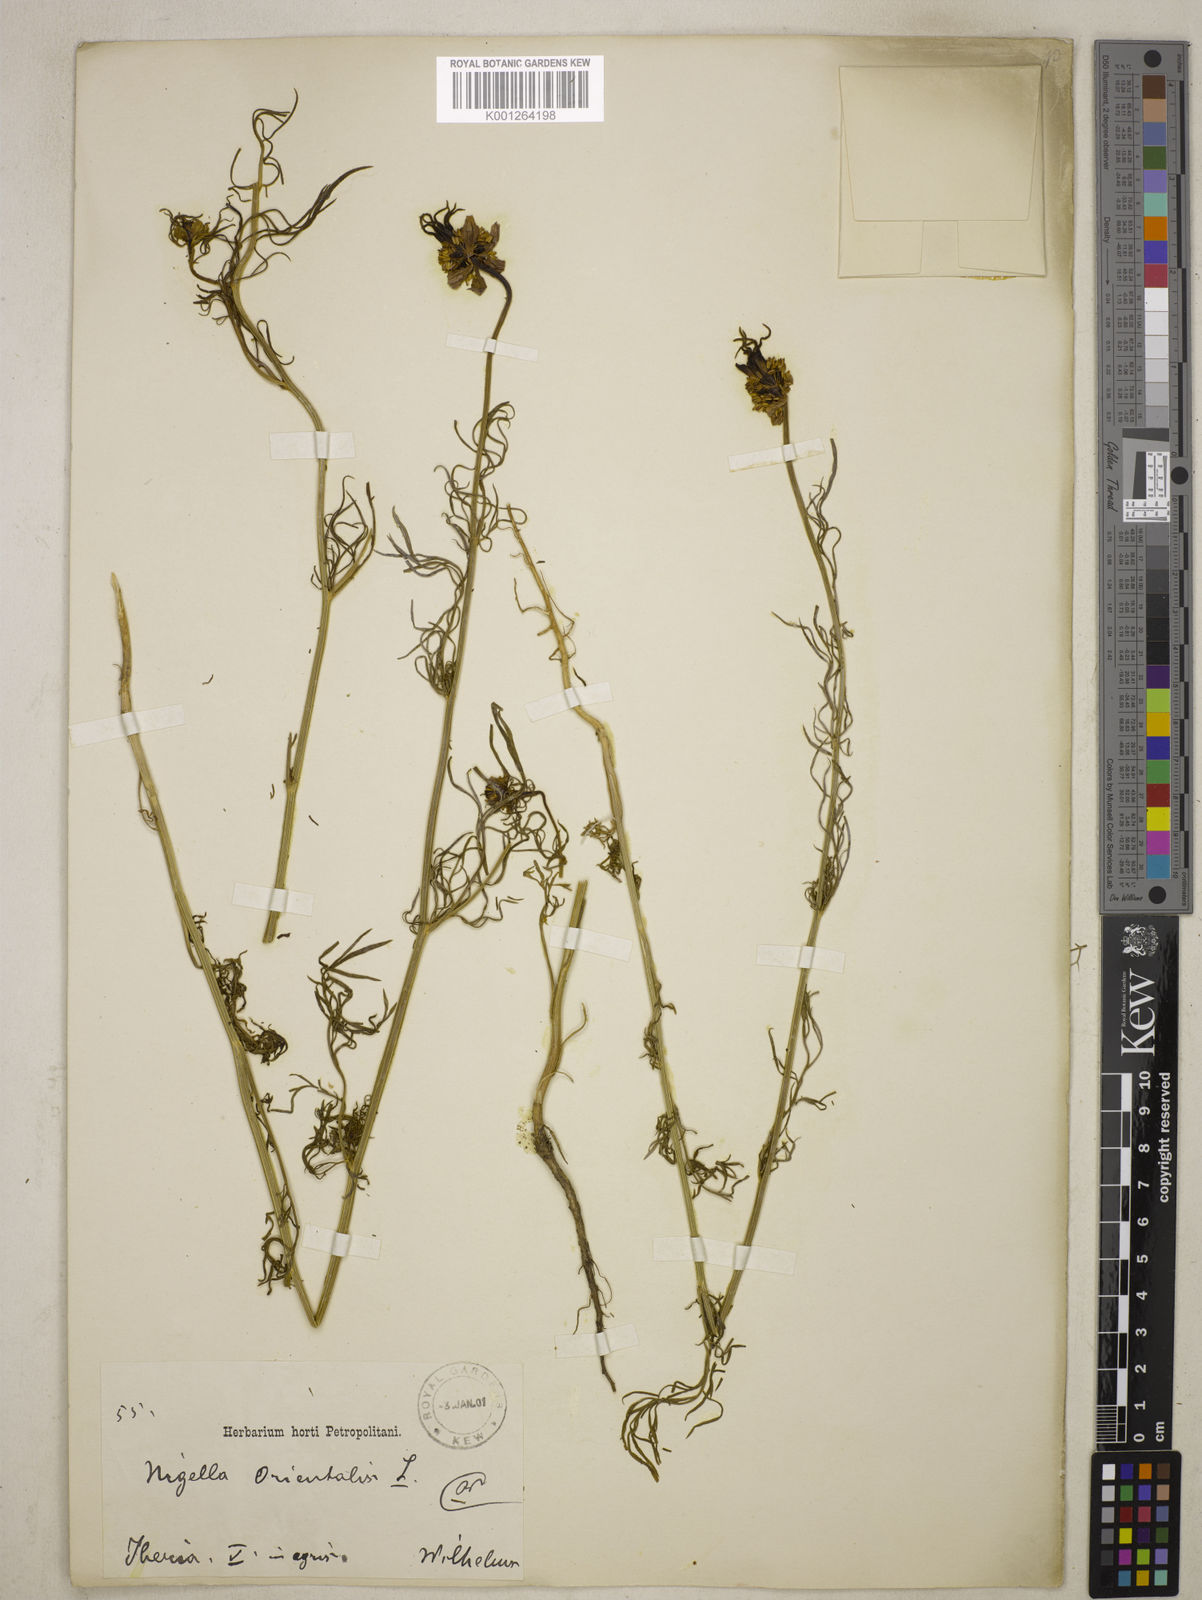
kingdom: Plantae
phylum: Tracheophyta
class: Magnoliopsida
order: Ranunculales
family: Ranunculaceae
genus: Nigella
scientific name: Nigella orientalis
